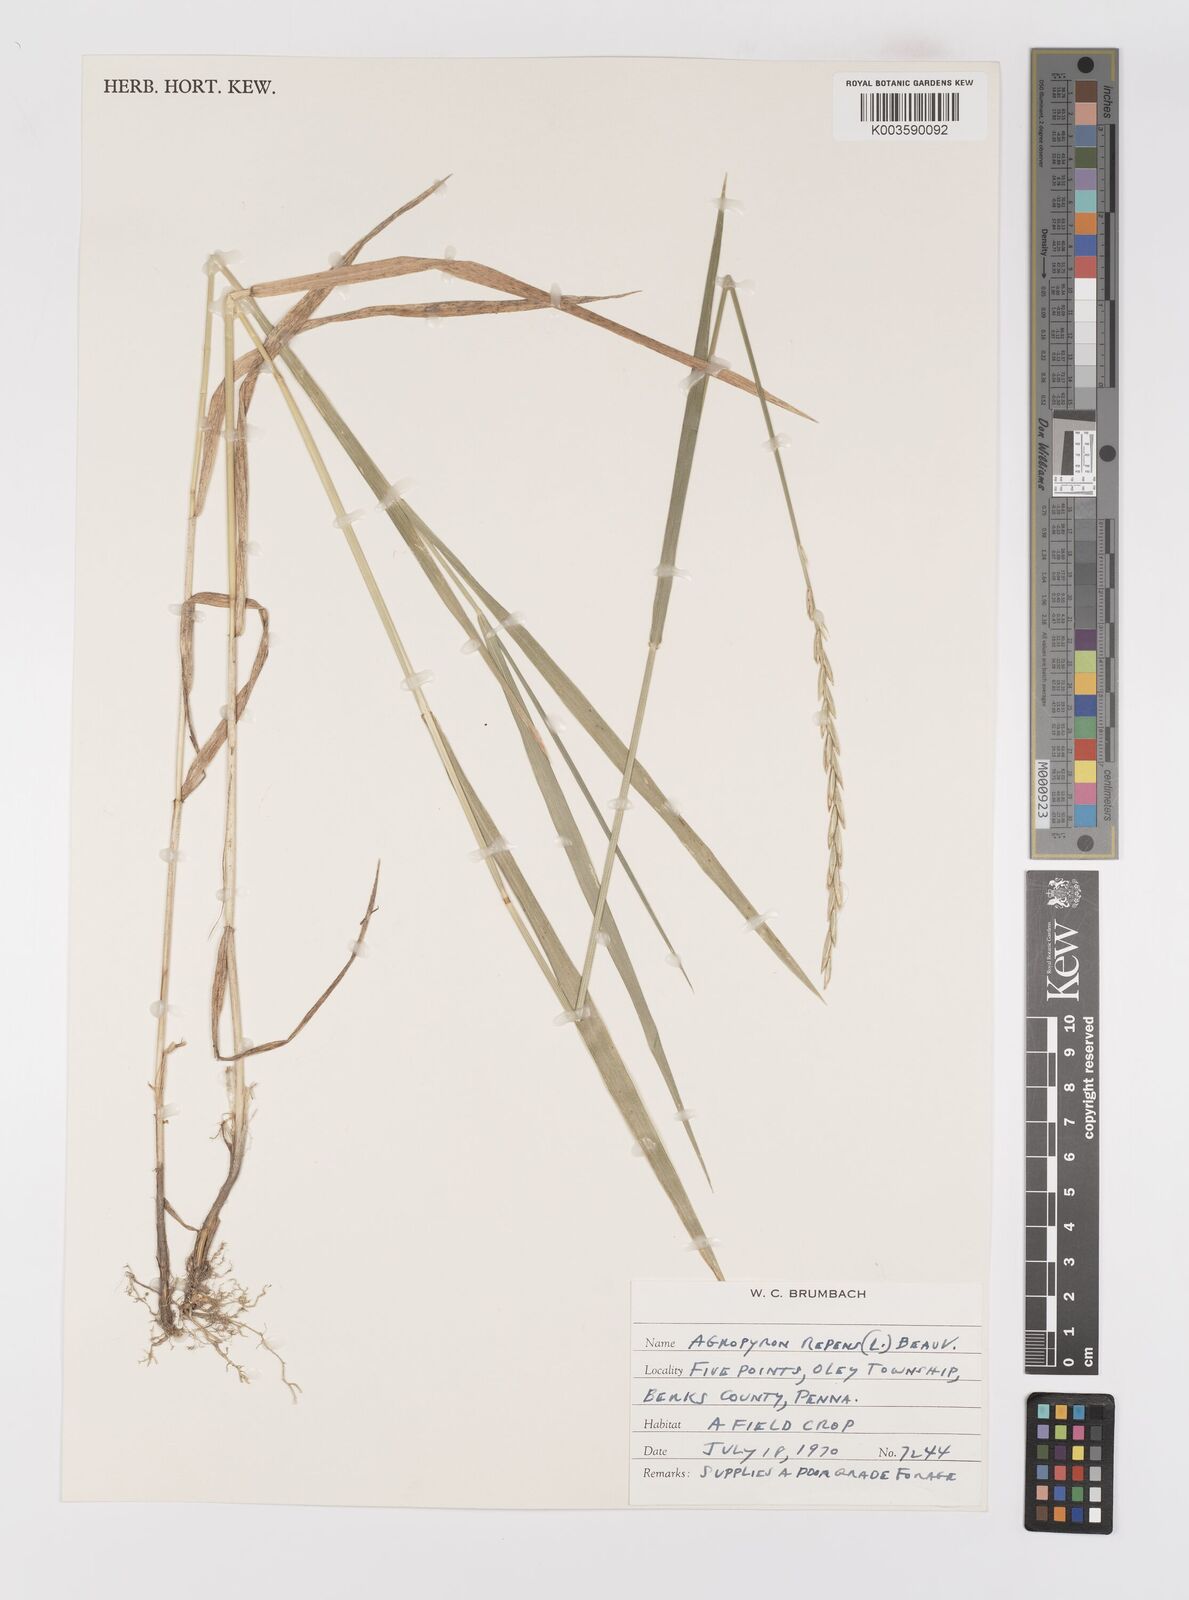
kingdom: Plantae
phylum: Tracheophyta
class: Liliopsida
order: Poales
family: Poaceae
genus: Elymus
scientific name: Elymus repens
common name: Quackgrass
